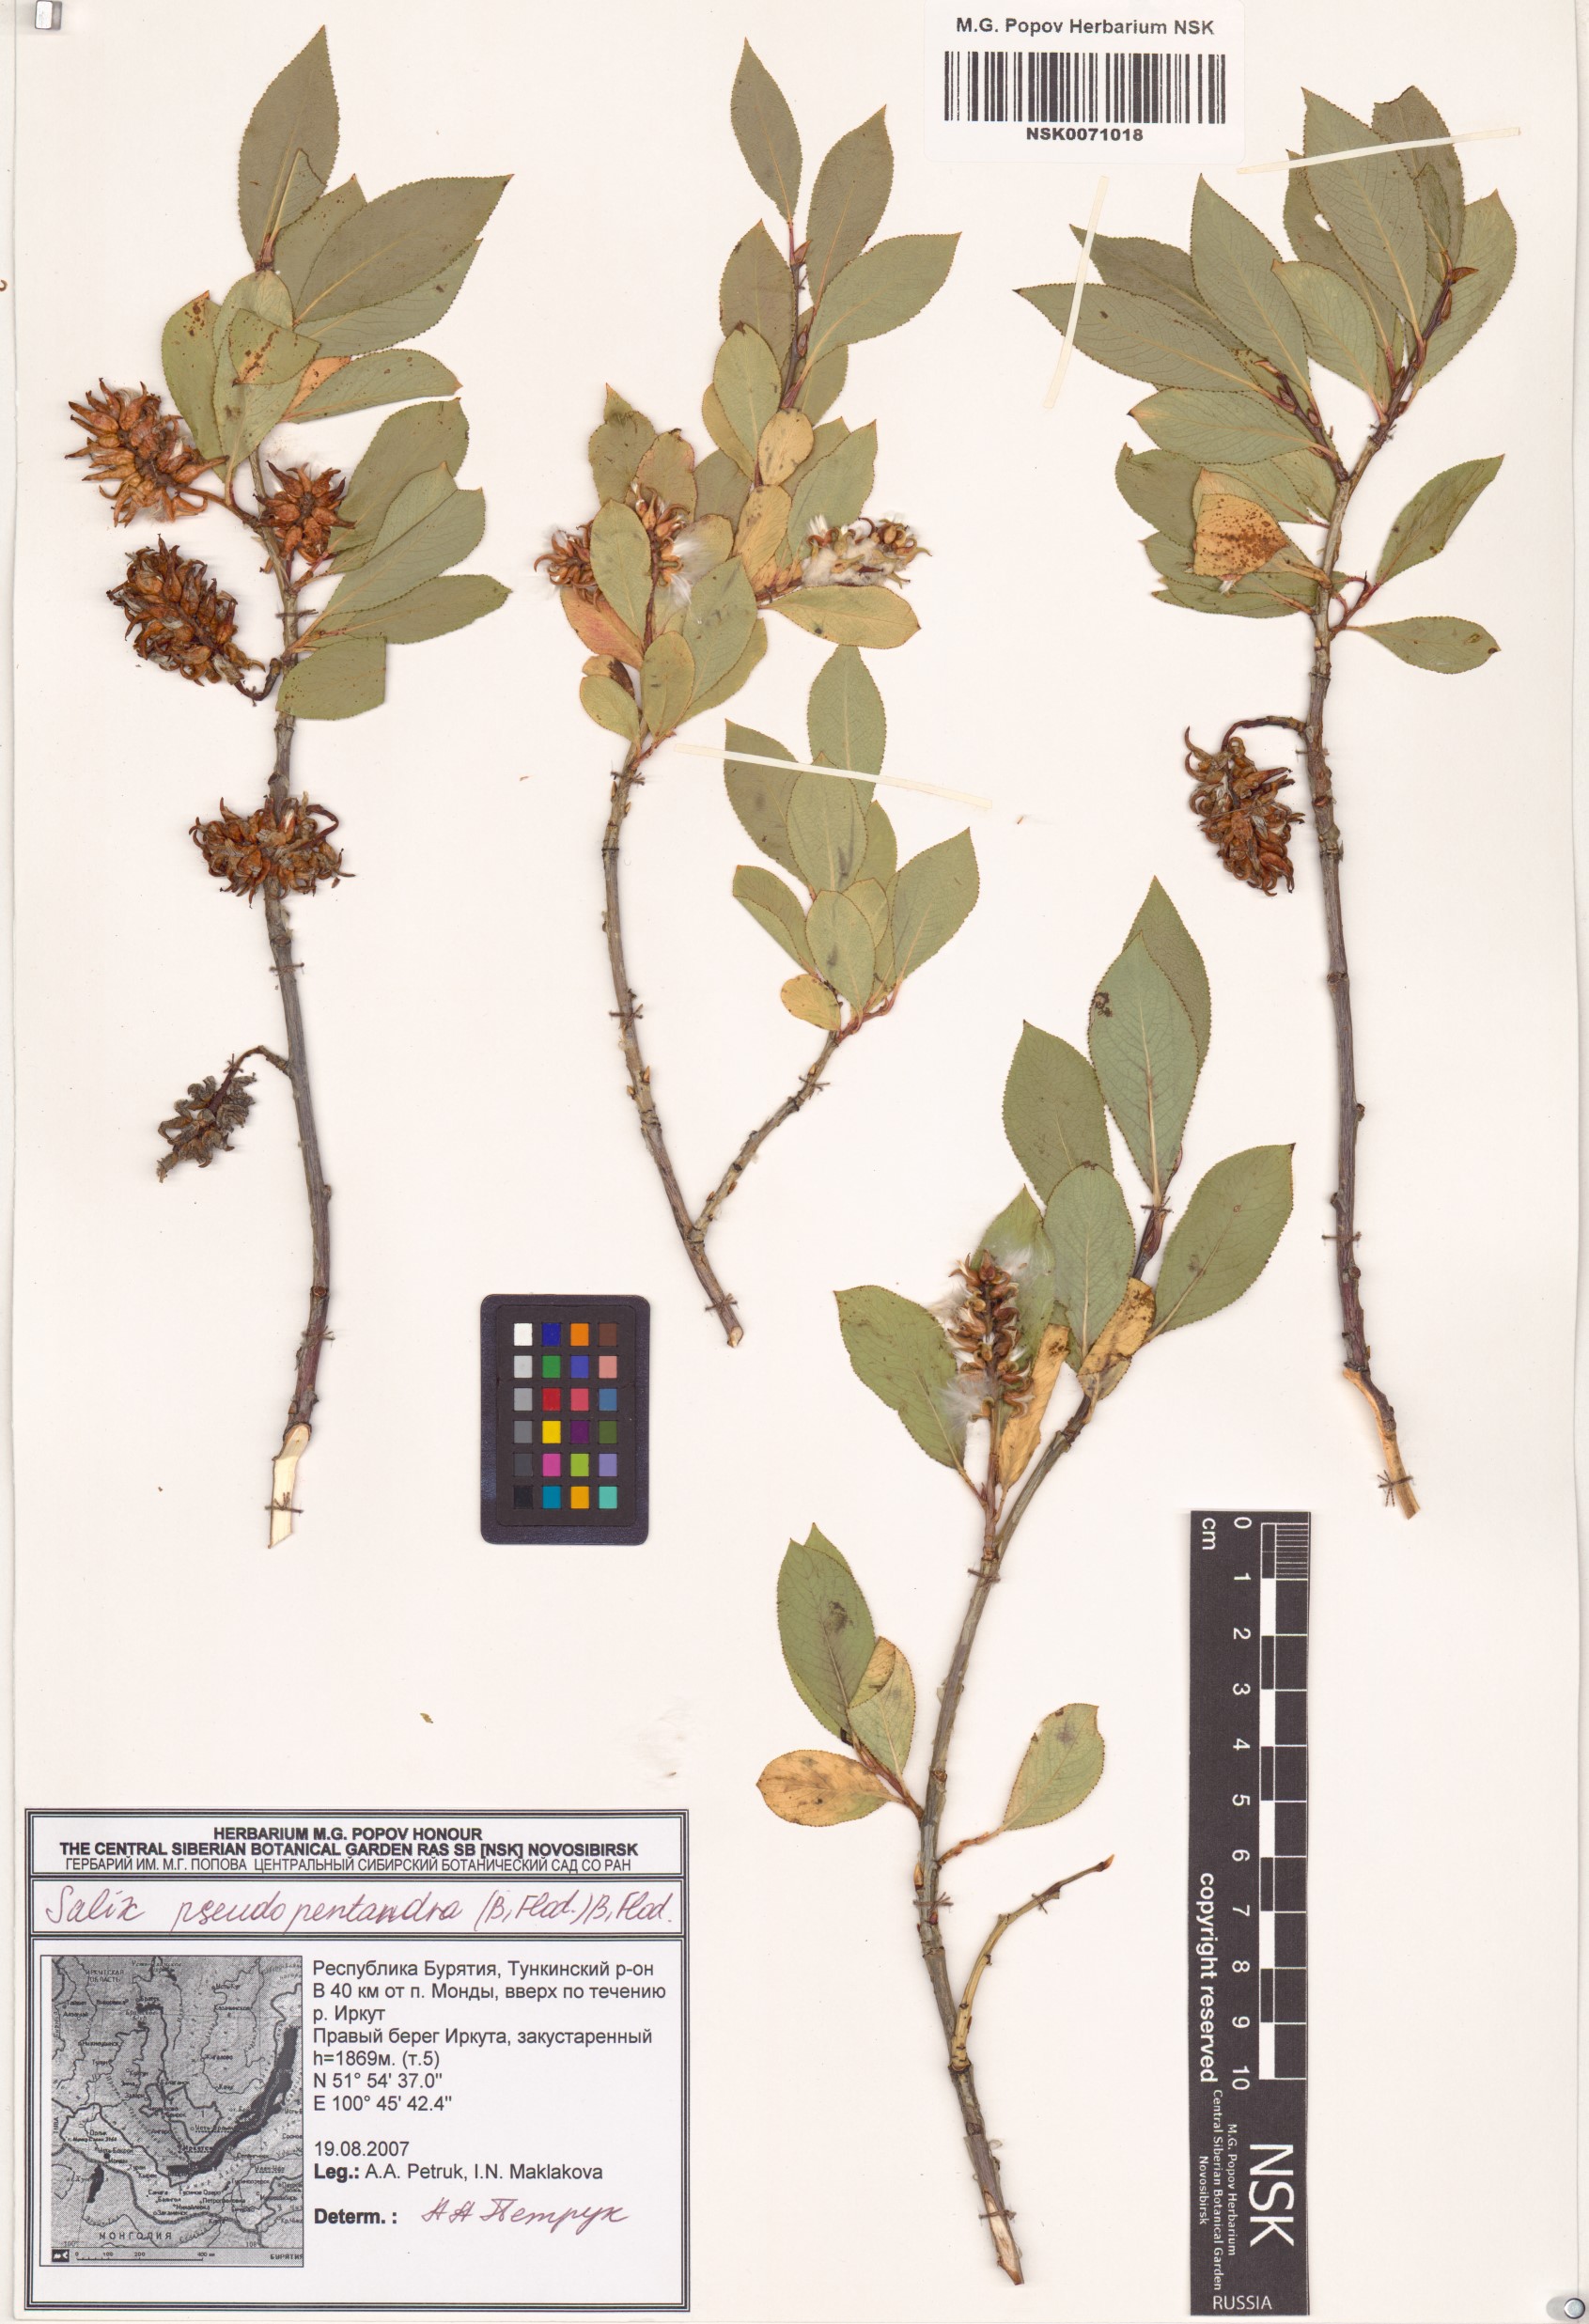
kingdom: Plantae
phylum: Tracheophyta
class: Magnoliopsida
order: Malpighiales
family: Salicaceae
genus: Salix
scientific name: Salix pseudopentandra
